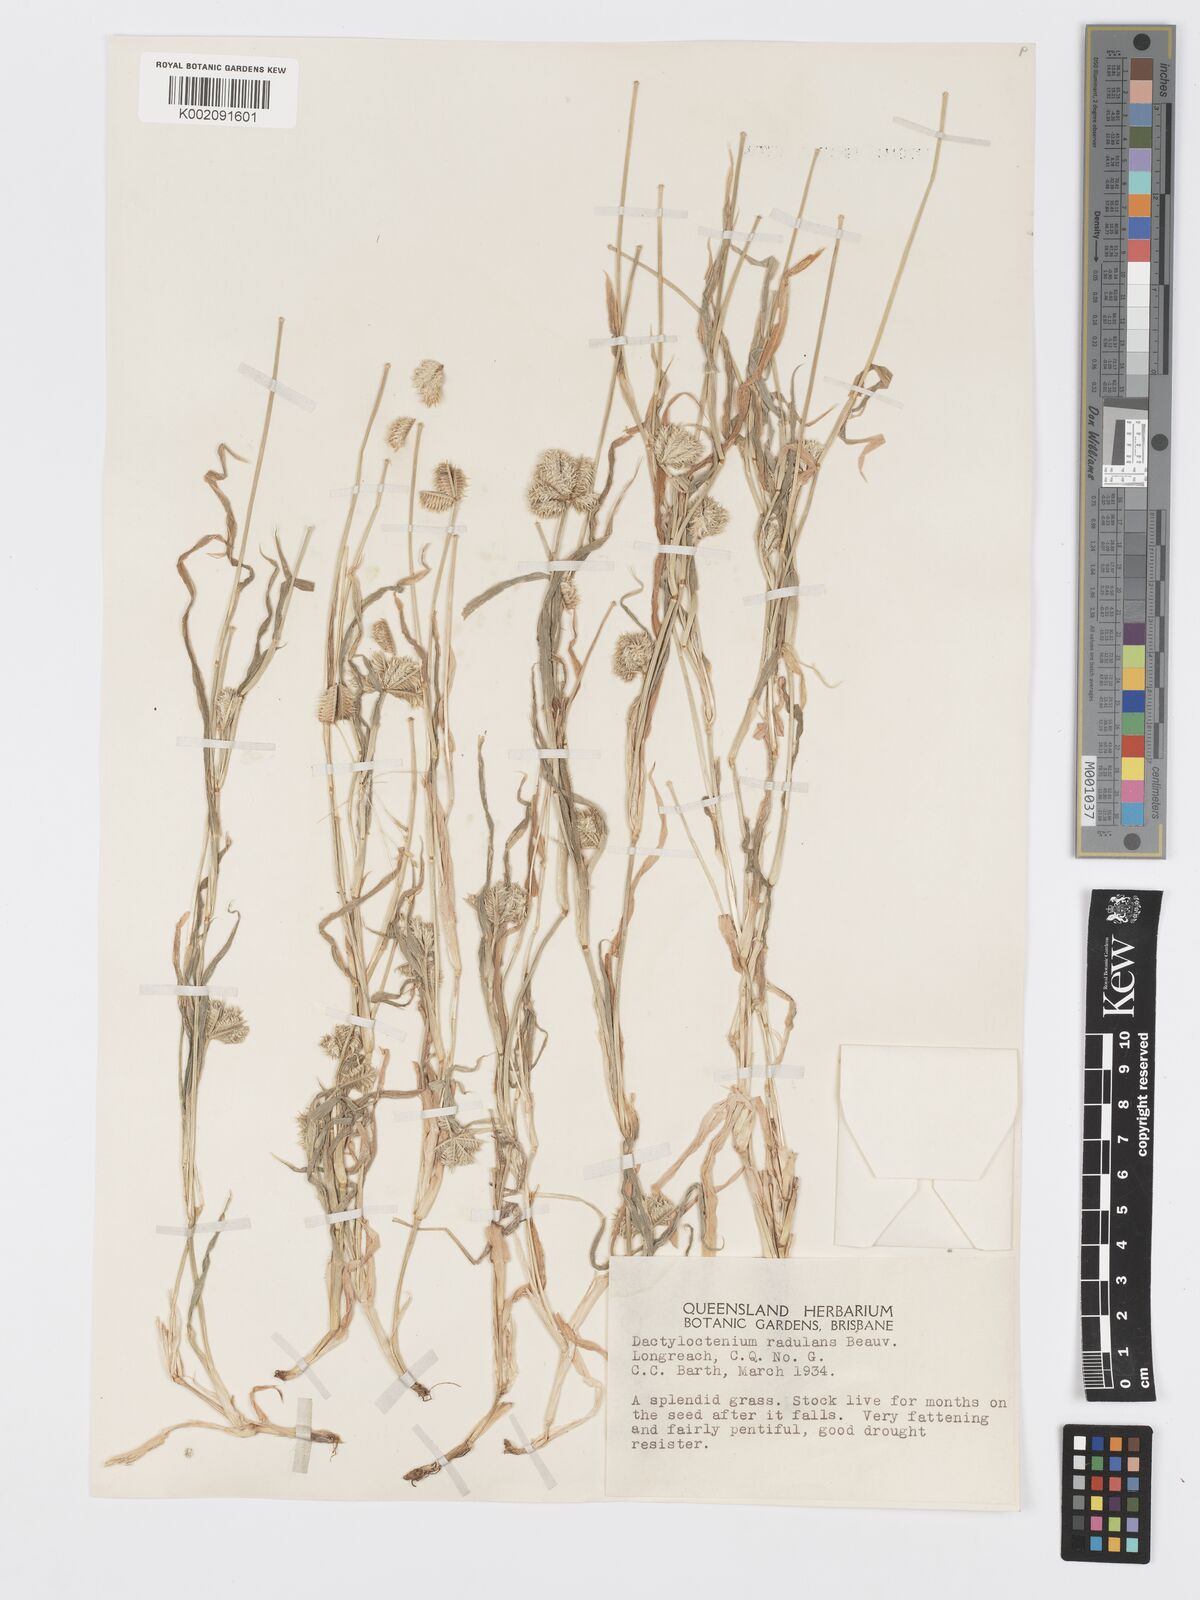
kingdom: Plantae
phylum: Tracheophyta
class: Liliopsida
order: Poales
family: Poaceae
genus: Dactyloctenium
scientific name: Dactyloctenium radulans
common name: Button-grass
